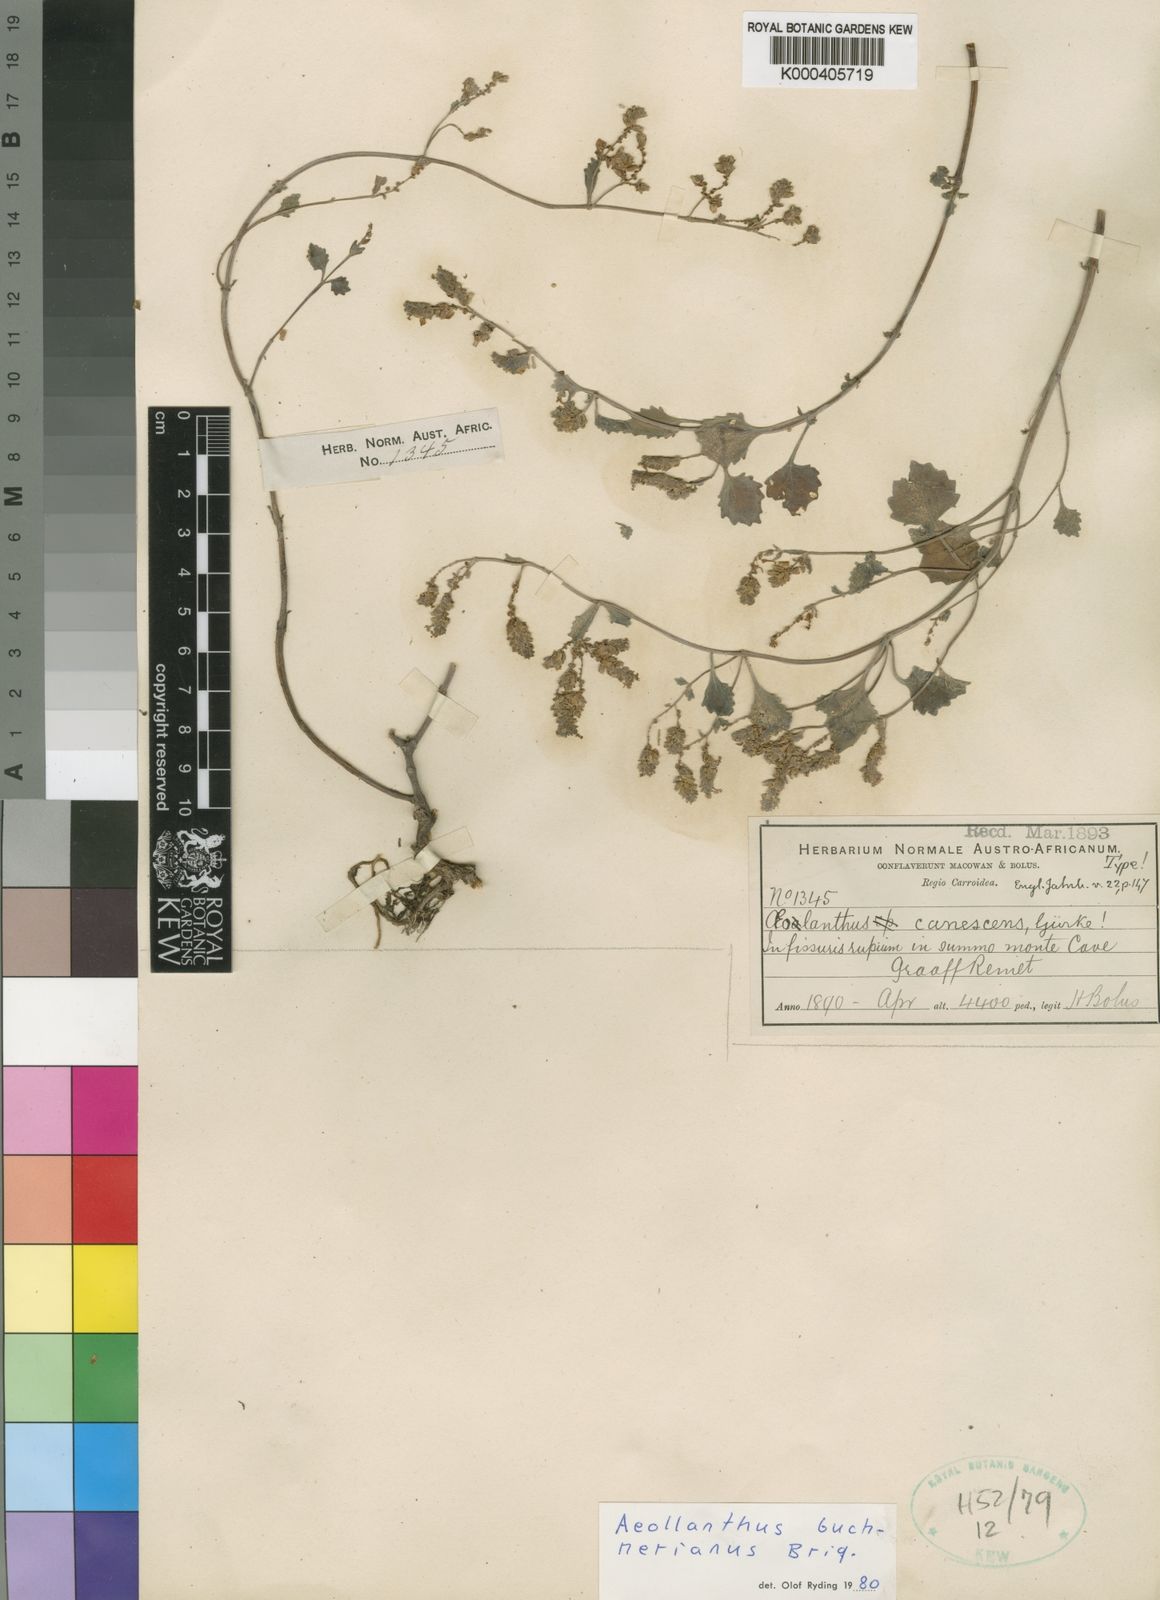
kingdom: Plantae
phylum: Tracheophyta
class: Magnoliopsida
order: Lamiales
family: Lamiaceae
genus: Aeollanthus
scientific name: Aeollanthus buchnerianus
